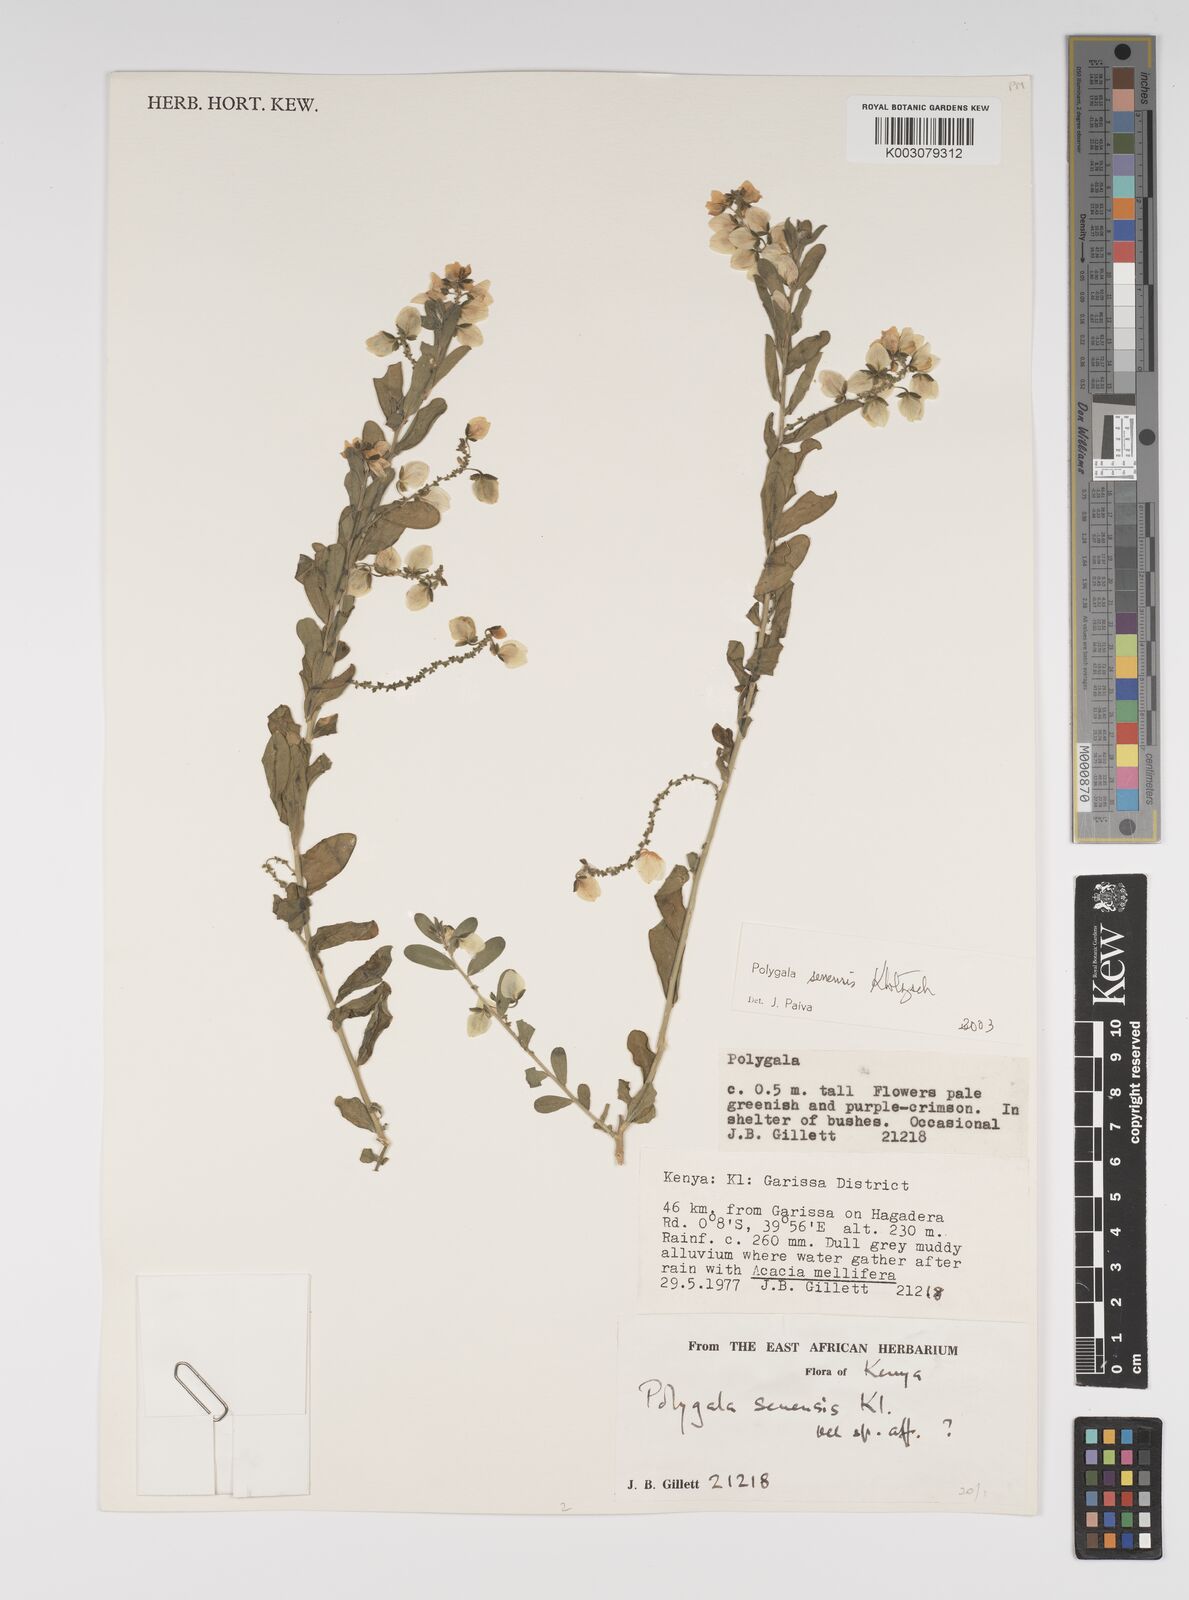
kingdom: Plantae
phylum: Tracheophyta
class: Magnoliopsida
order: Fabales
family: Polygalaceae
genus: Polygala
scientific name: Polygala senensis
